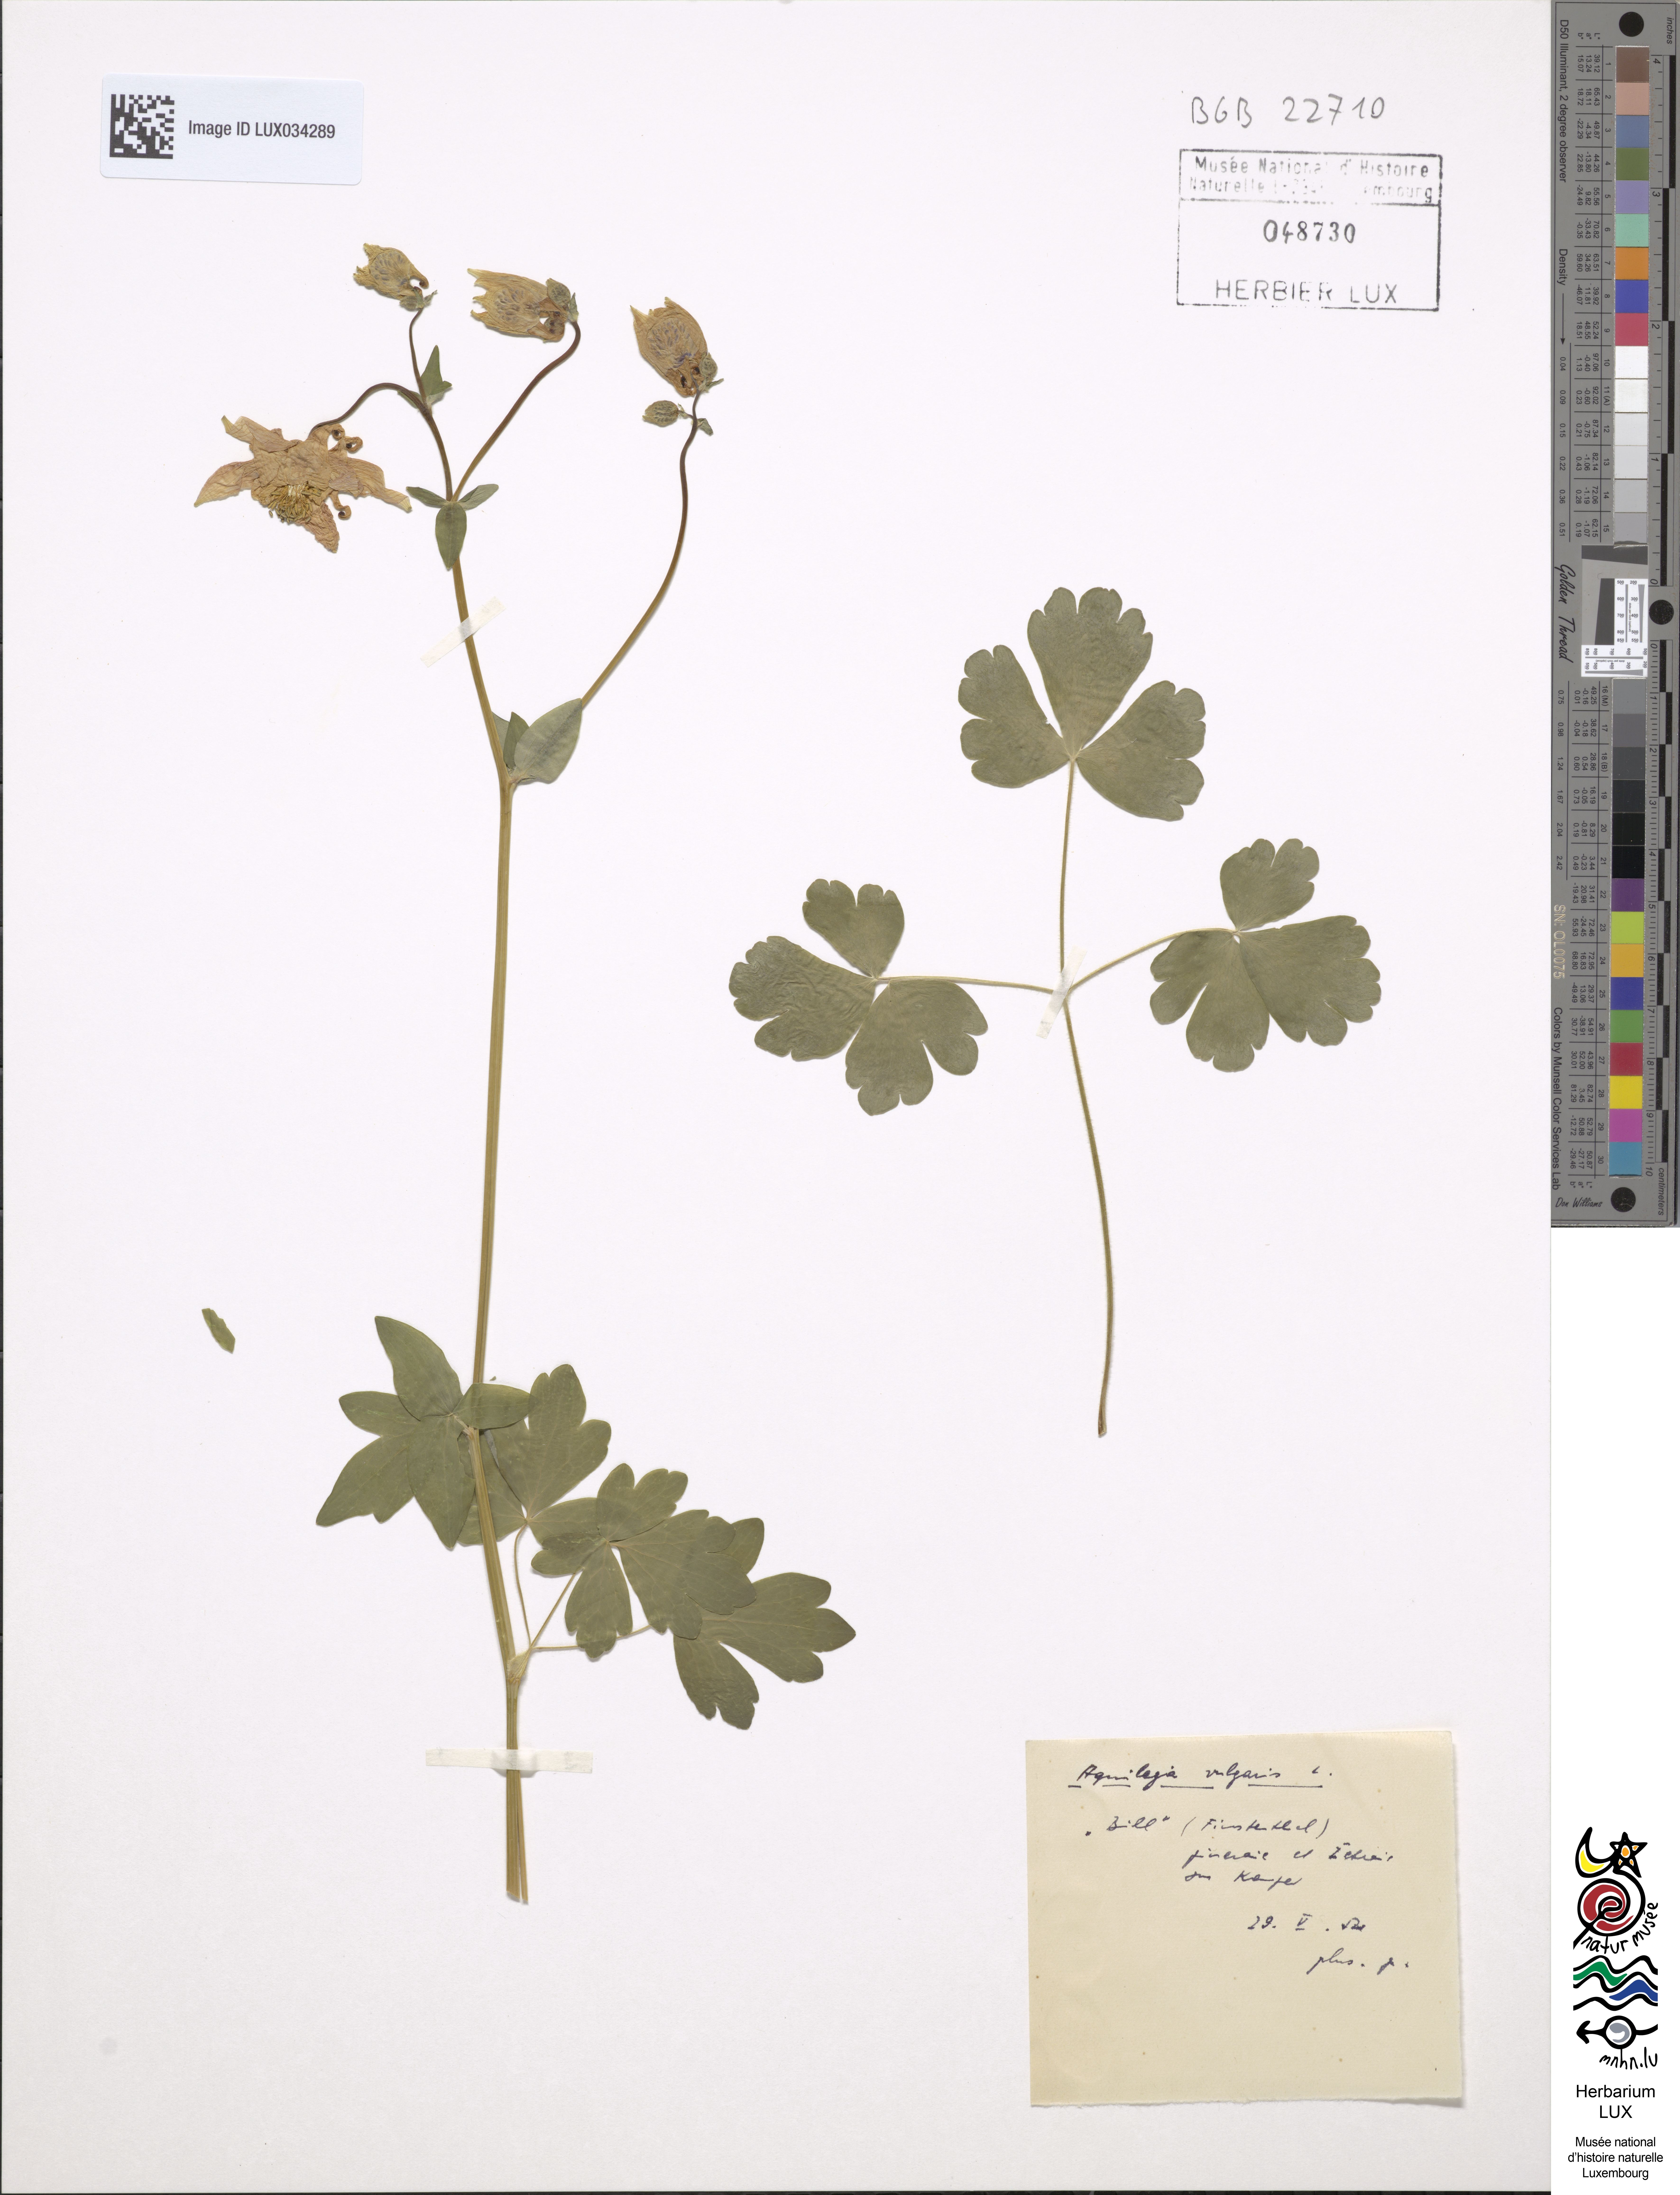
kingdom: Plantae
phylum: Tracheophyta
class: Magnoliopsida
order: Ranunculales
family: Ranunculaceae
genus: Aquilegia
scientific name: Aquilegia vulgaris
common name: Columbine
